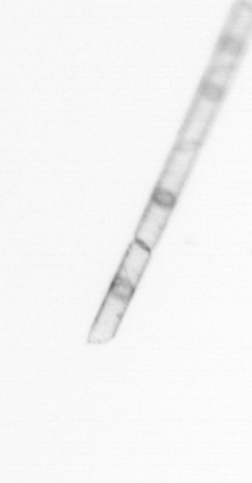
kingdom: Chromista
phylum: Ochrophyta
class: Bacillariophyceae
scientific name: Bacillariophyceae
